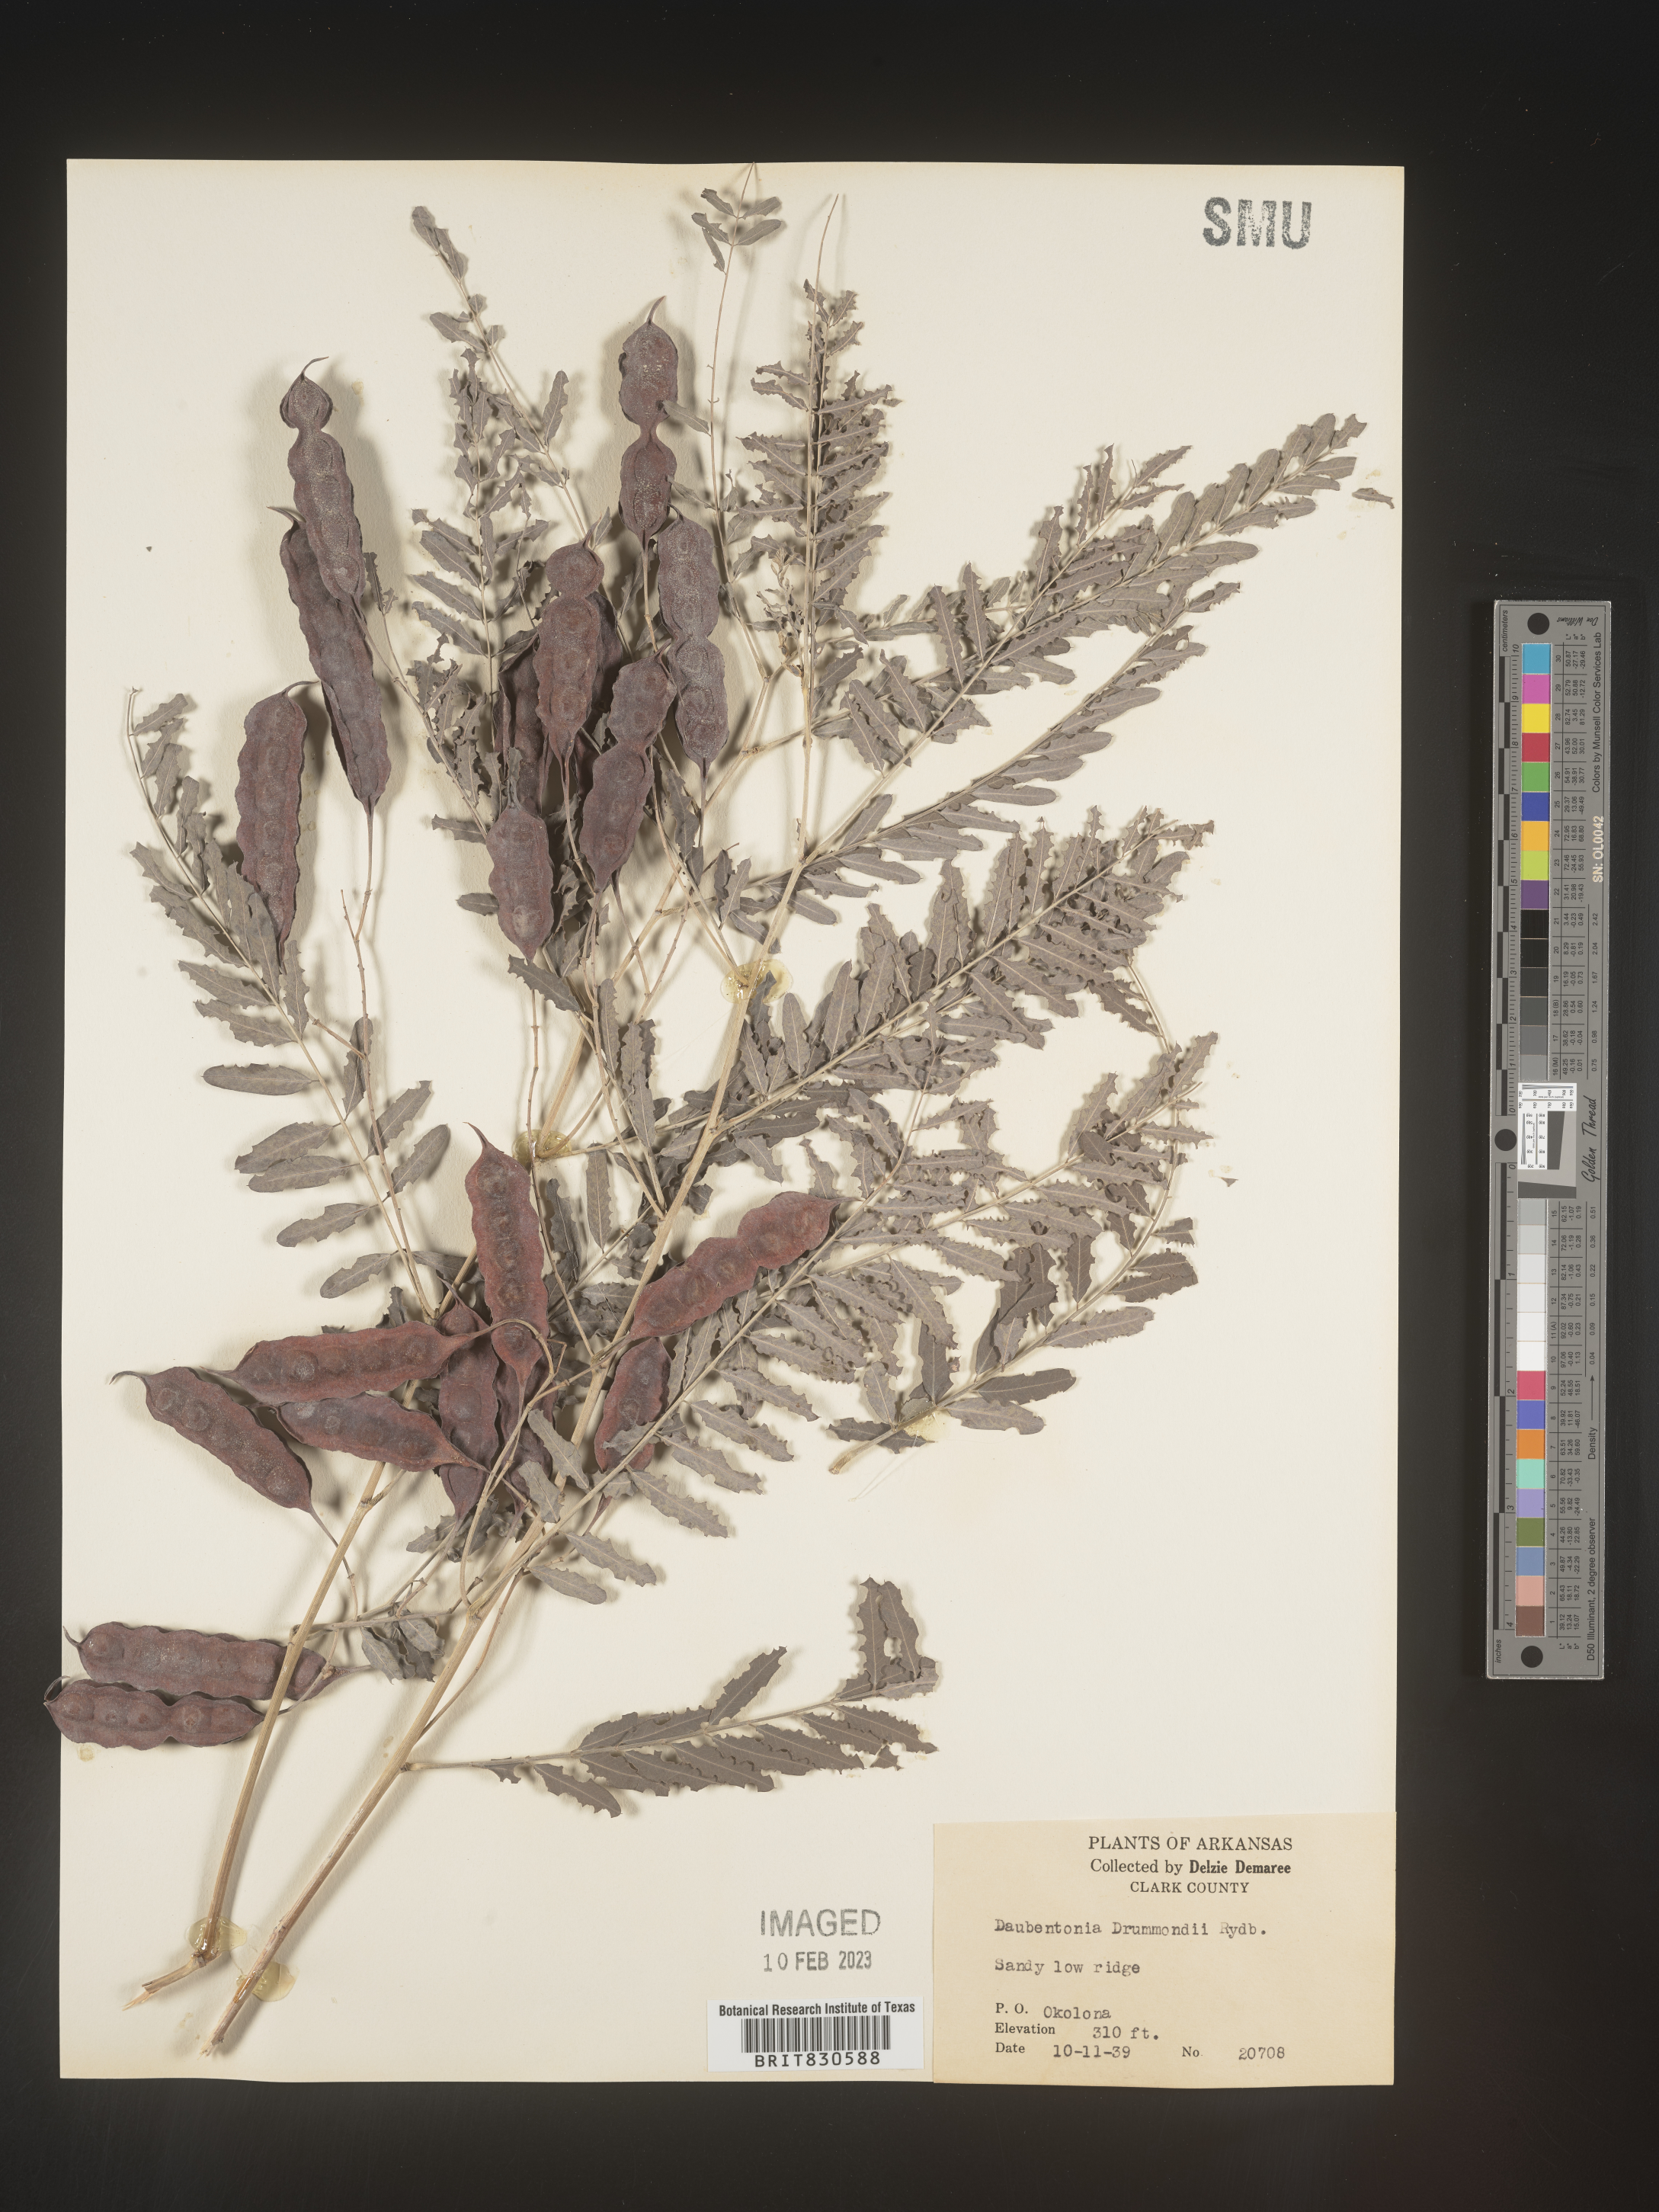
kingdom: Plantae
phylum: Tracheophyta
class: Magnoliopsida
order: Fabales
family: Fabaceae
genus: Sesbania
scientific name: Sesbania drummondii
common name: Poison-bean
